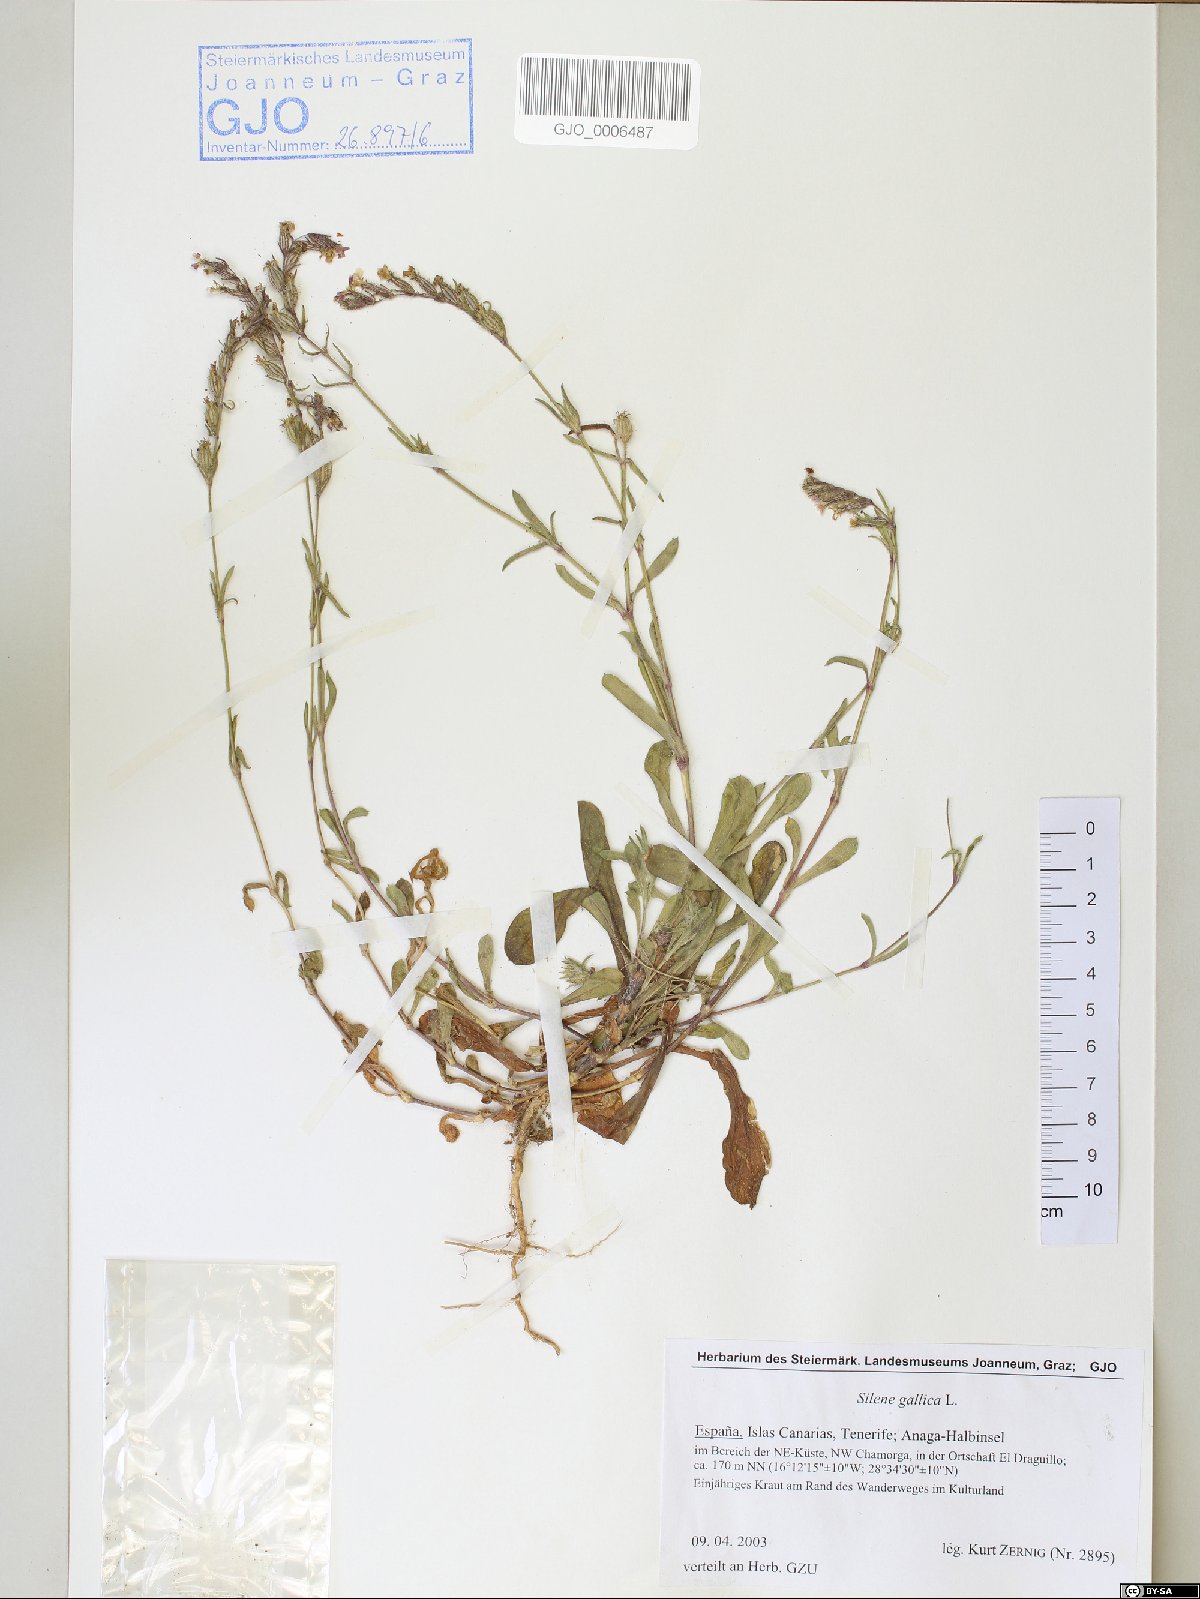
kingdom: Plantae
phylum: Tracheophyta
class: Magnoliopsida
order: Caryophyllales
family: Caryophyllaceae
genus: Silene
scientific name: Silene gallica
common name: Small-flowered catchfly
